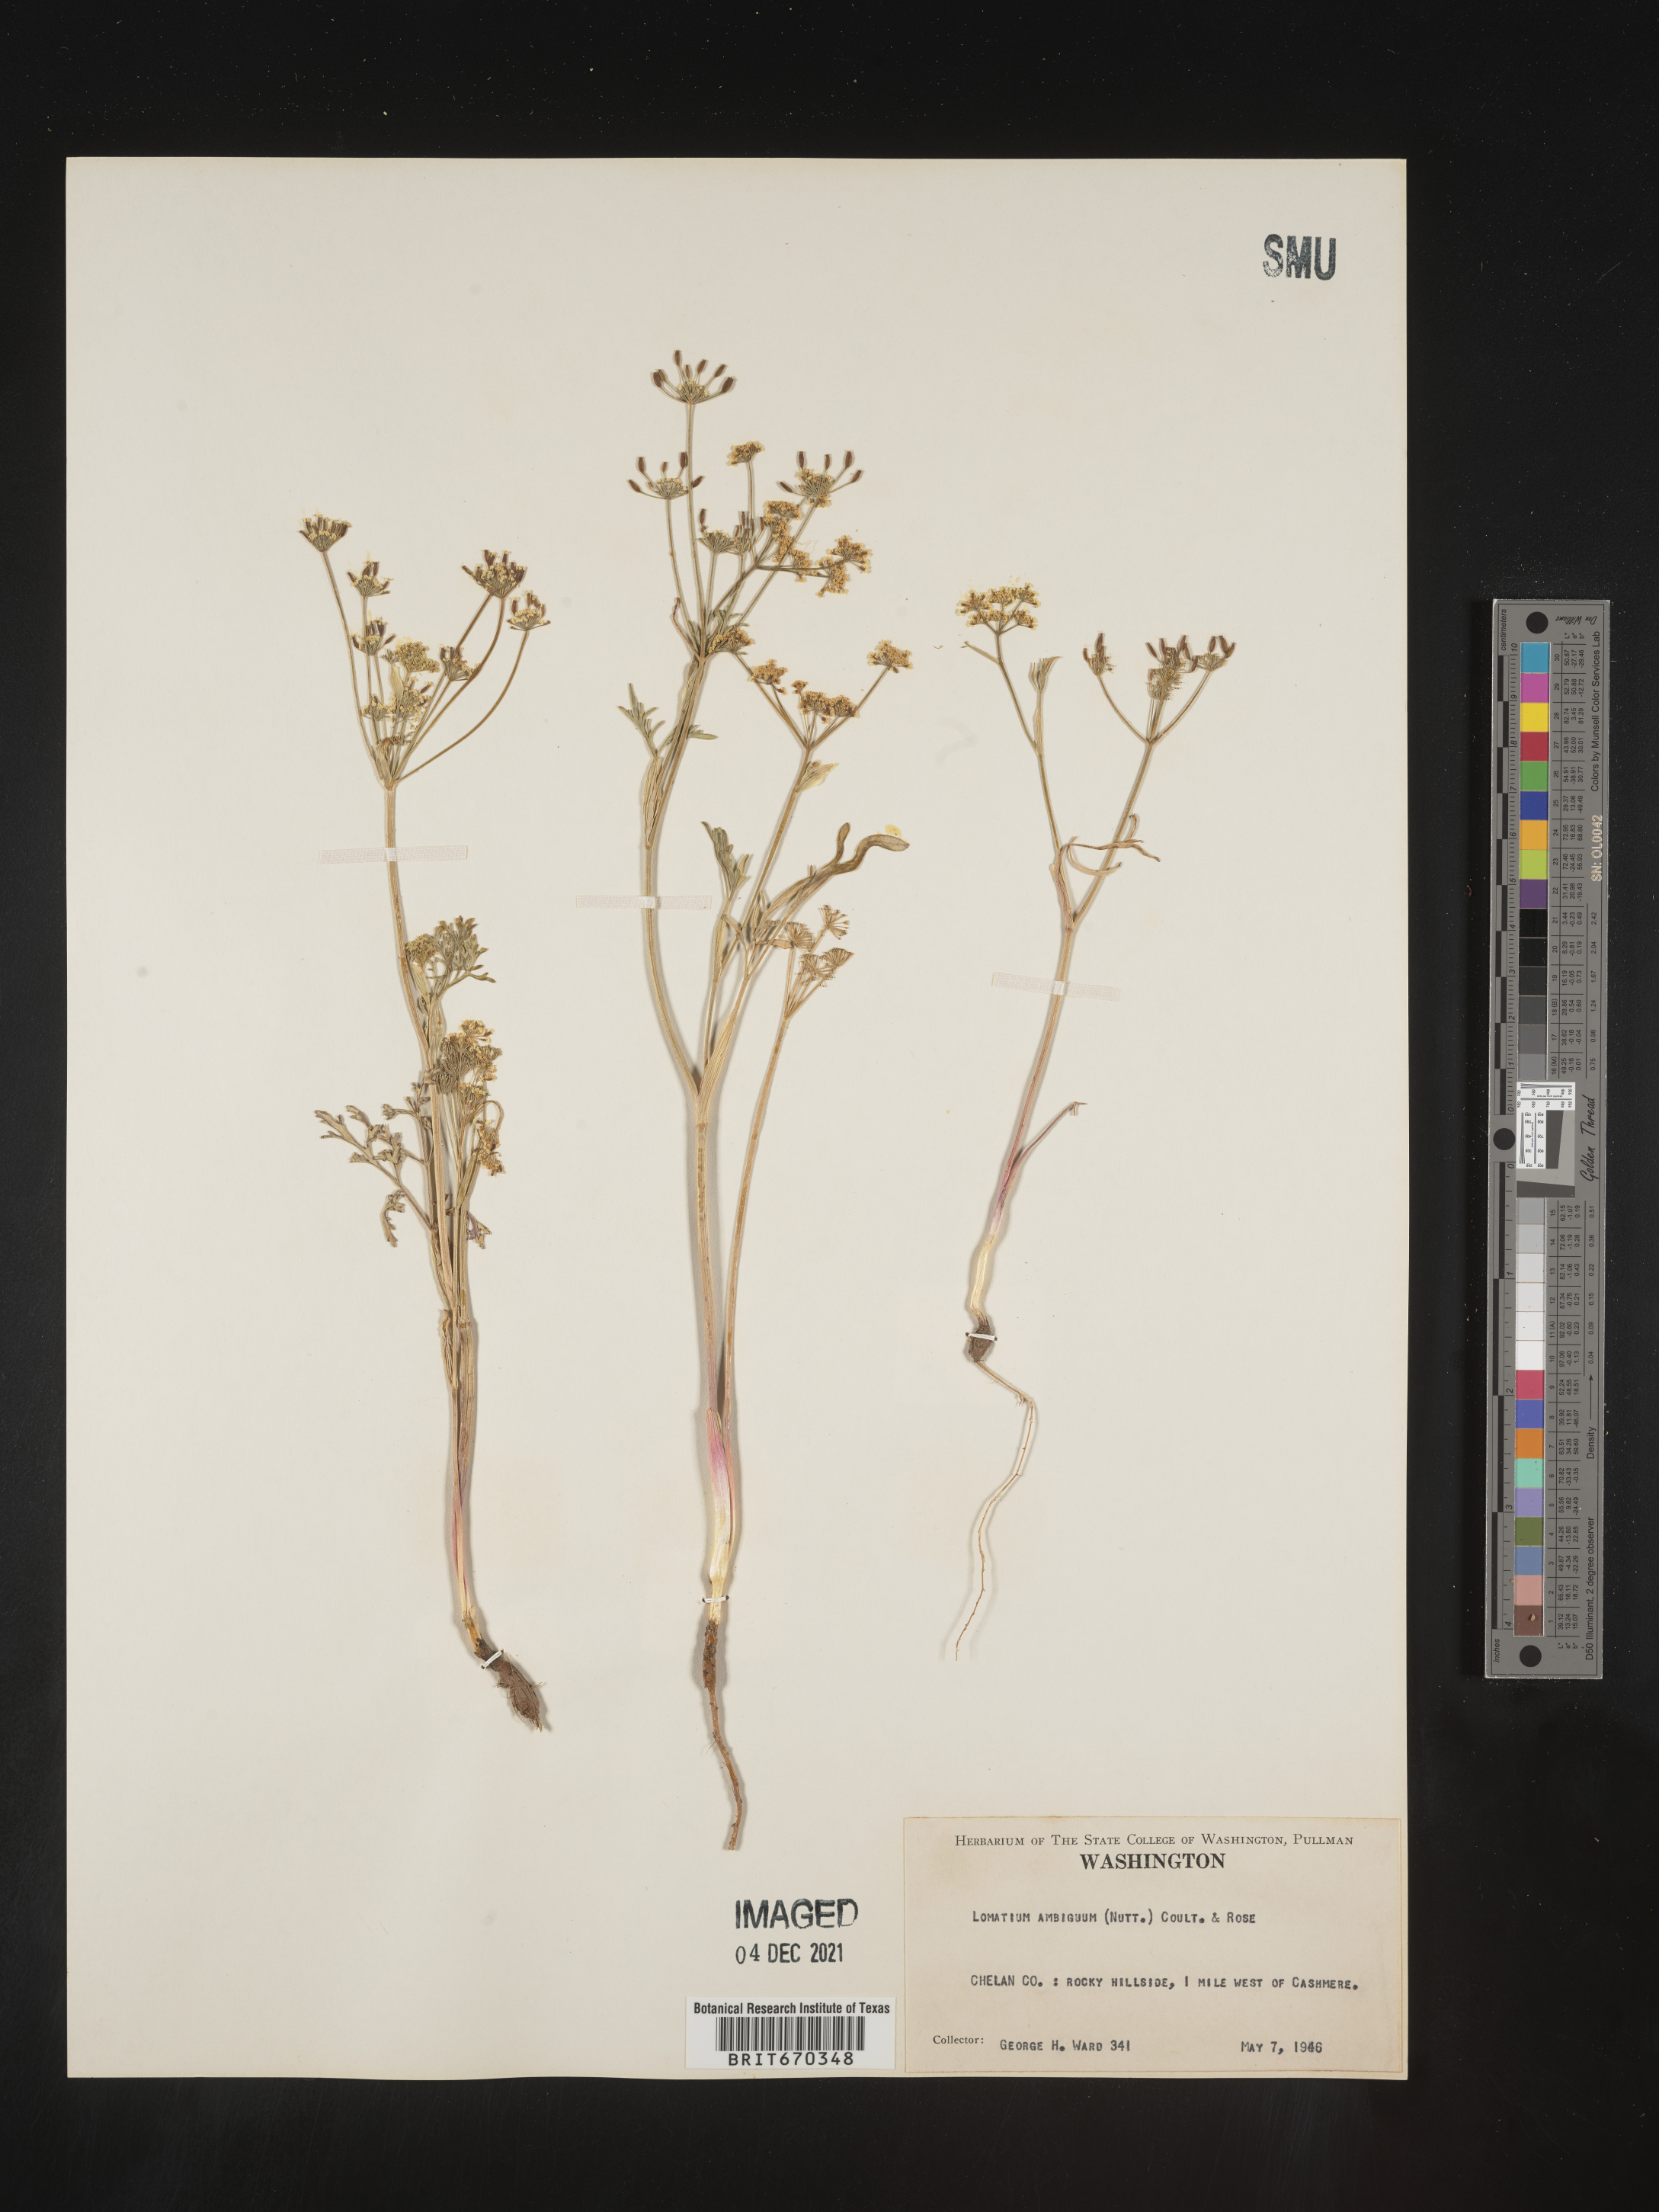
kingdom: Plantae
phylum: Tracheophyta
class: Magnoliopsida
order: Apiales
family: Apiaceae
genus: Lomatium
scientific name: Lomatium ambiguum
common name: Lacy lomatium
